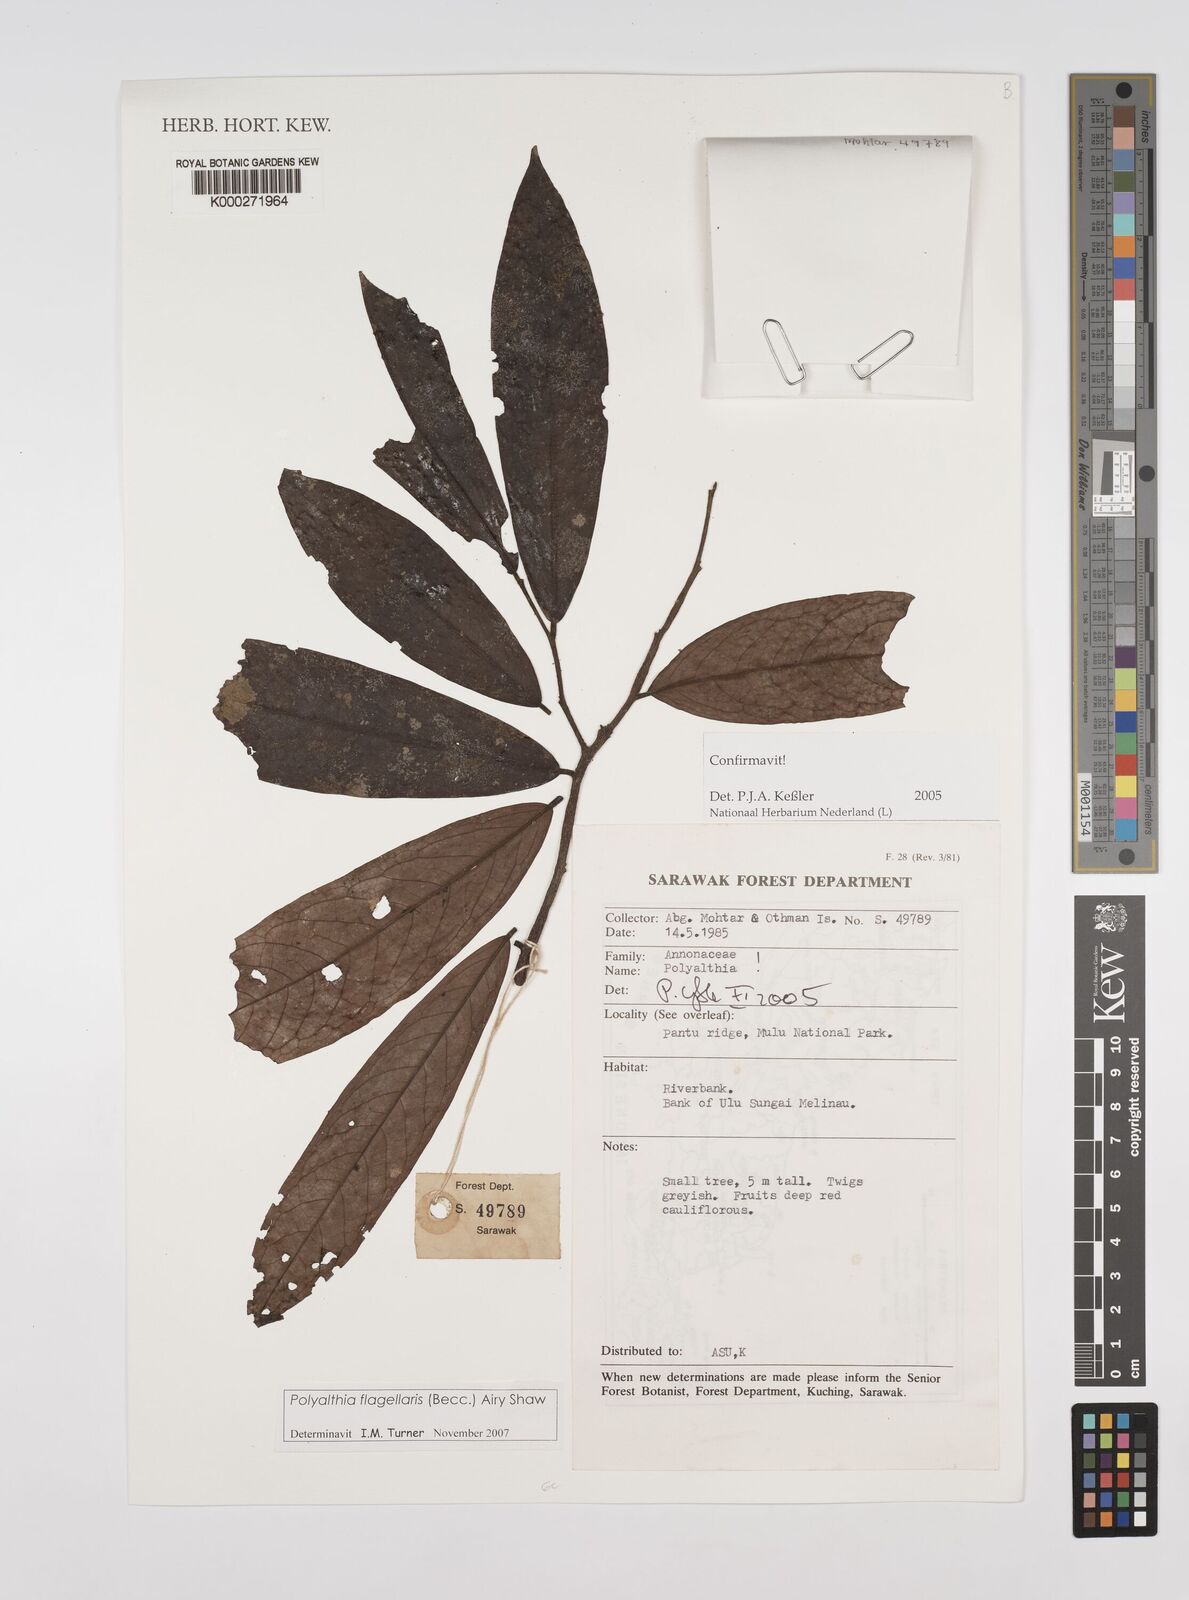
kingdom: Plantae
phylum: Tracheophyta
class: Magnoliopsida
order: Magnoliales
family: Annonaceae
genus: Polyalthia
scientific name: Polyalthia
